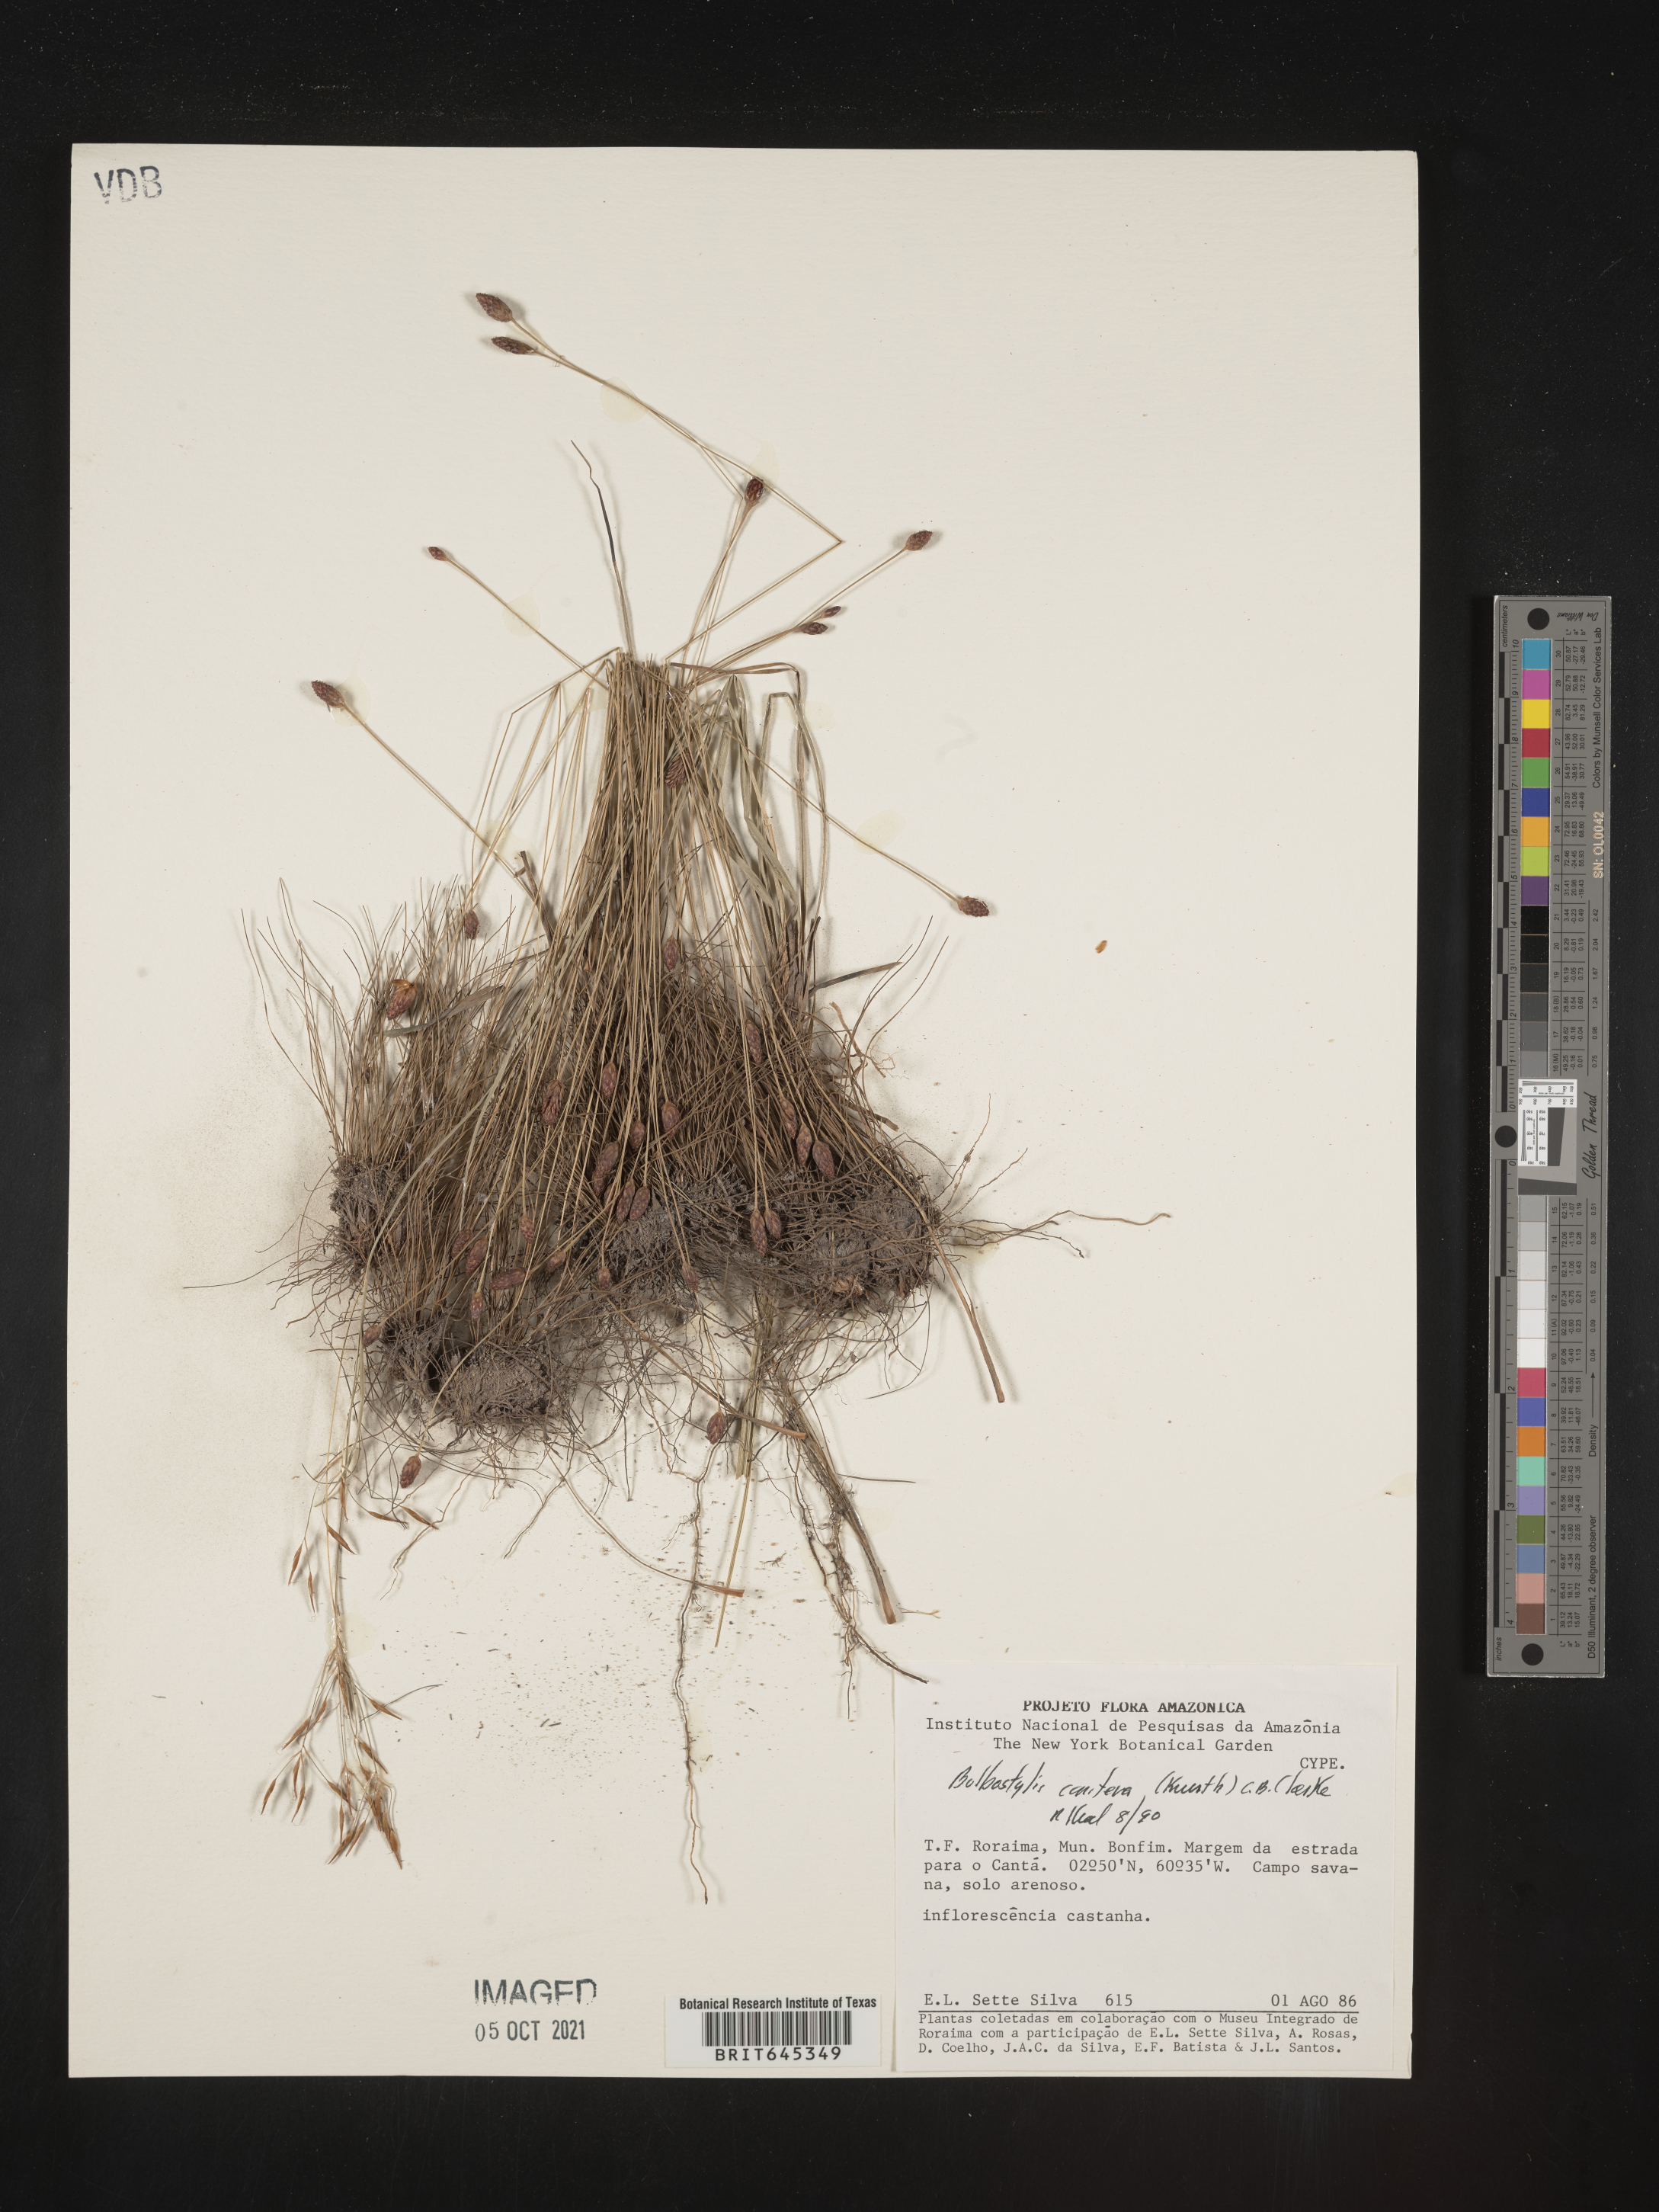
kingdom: Plantae
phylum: Tracheophyta
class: Liliopsida
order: Poales
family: Cyperaceae
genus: Bulbostylis
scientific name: Bulbostylis conifera
